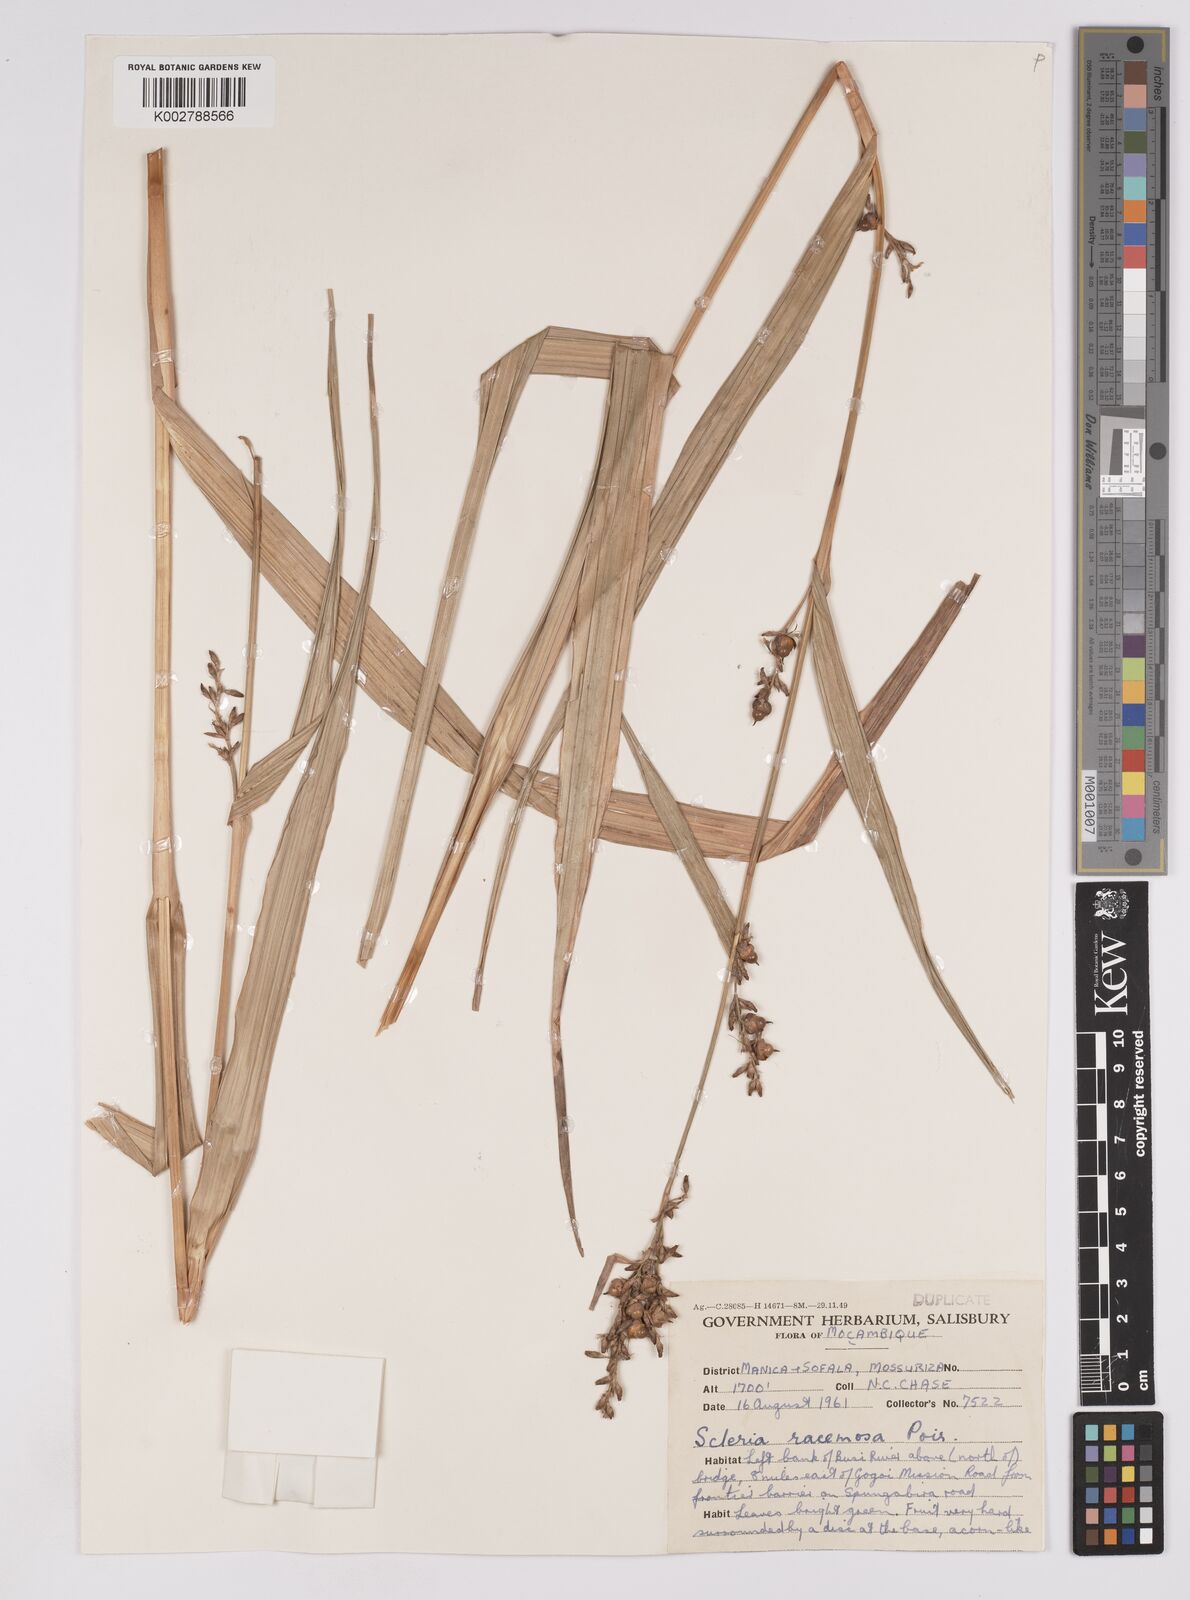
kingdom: Plantae
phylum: Tracheophyta
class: Liliopsida
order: Poales
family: Cyperaceae
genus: Scleria
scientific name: Scleria racemosa
